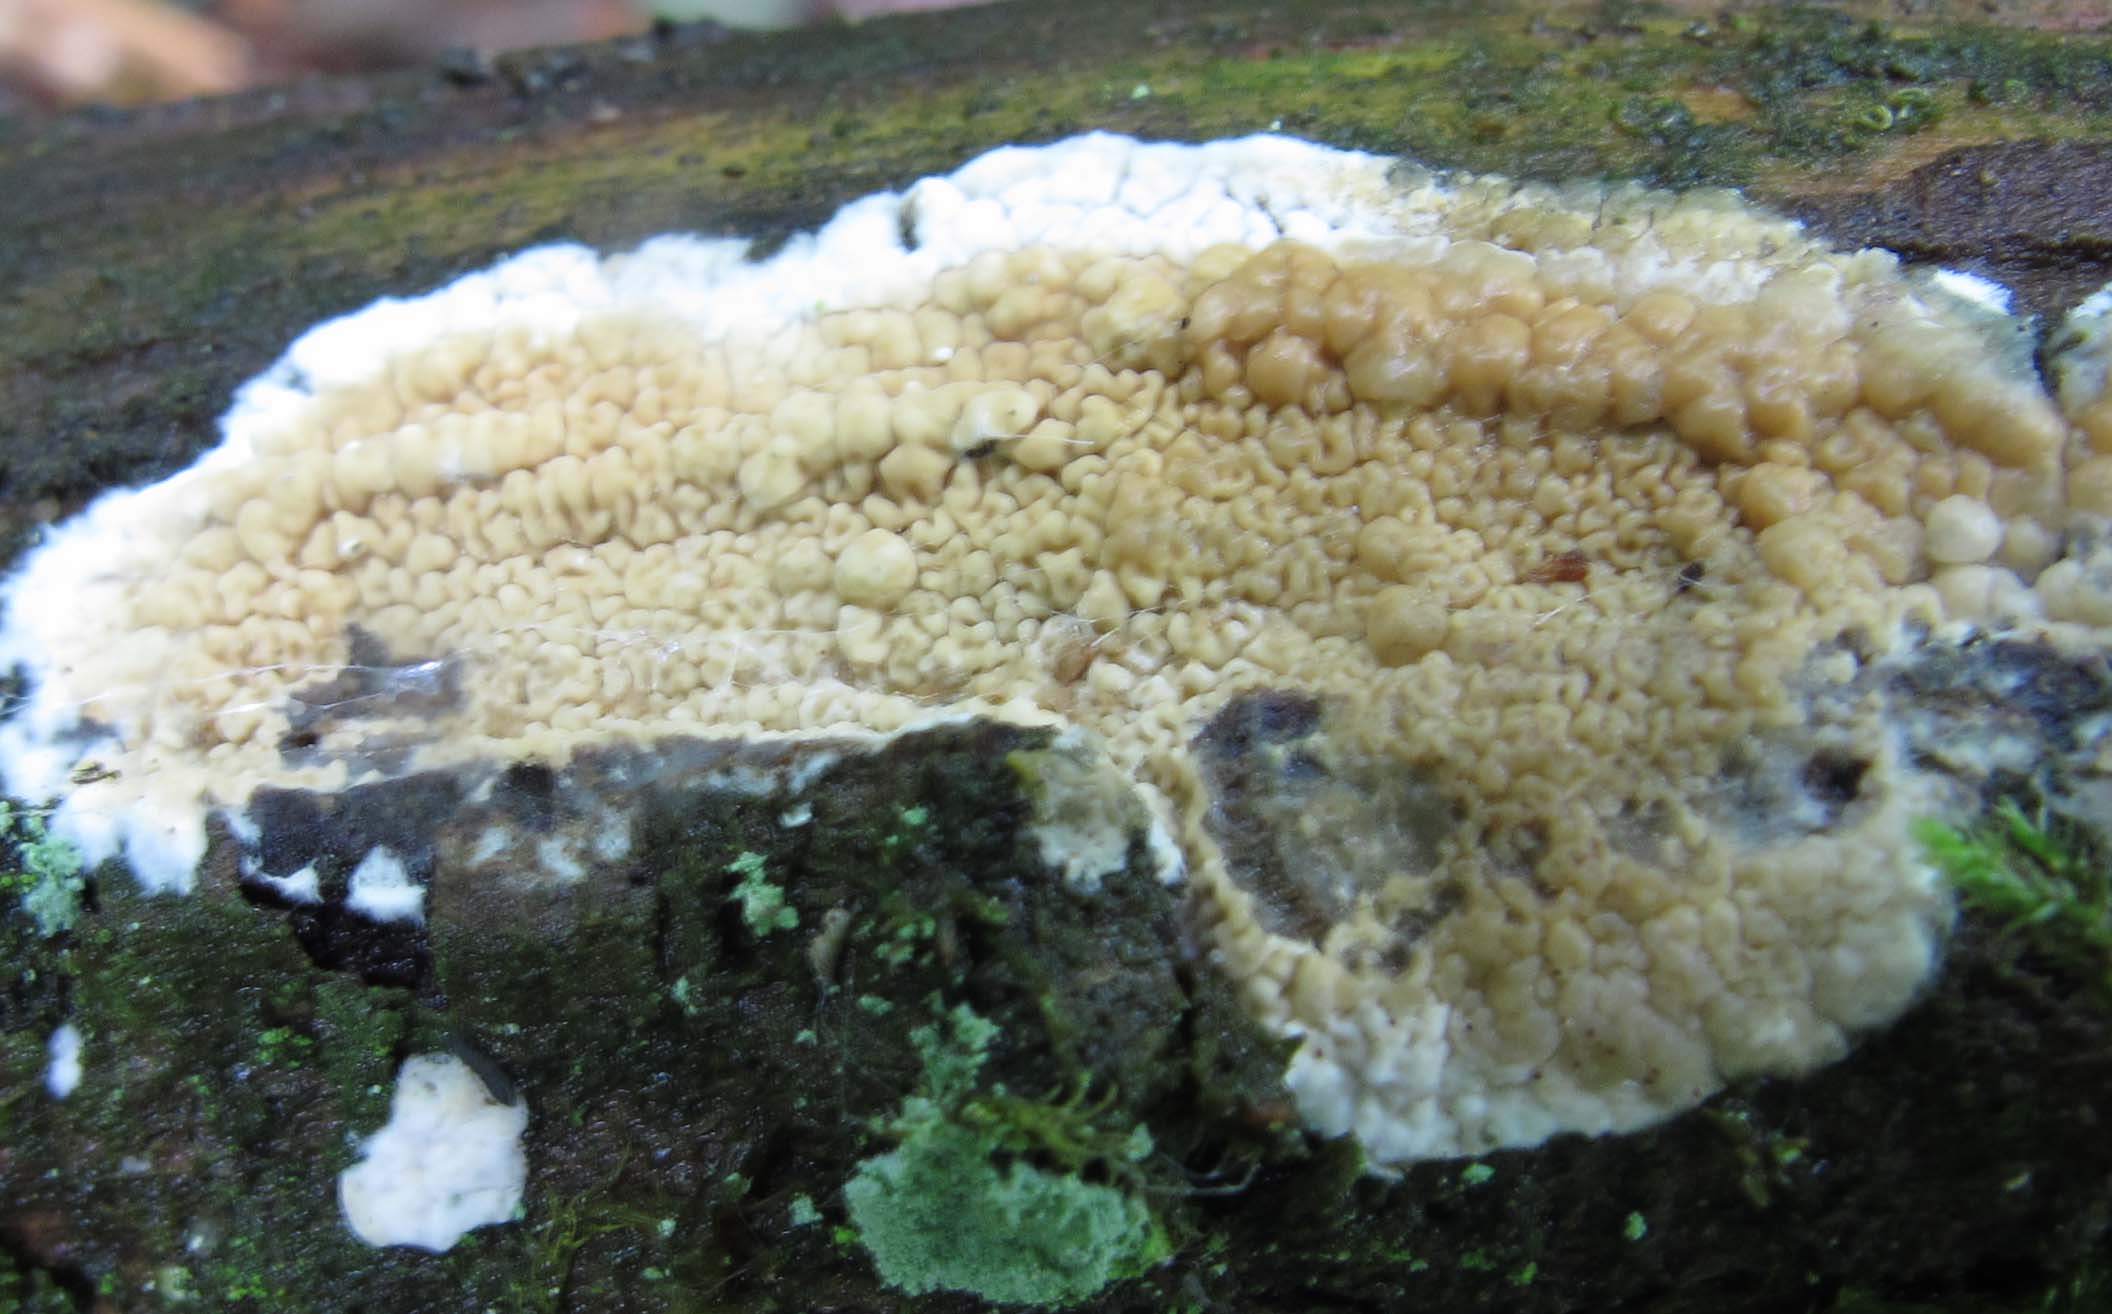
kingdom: Fungi
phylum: Basidiomycota
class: Agaricomycetes
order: Polyporales
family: Irpicaceae
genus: Crystallicutis
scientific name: Crystallicutis serpens
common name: gråviolet barkhinde
